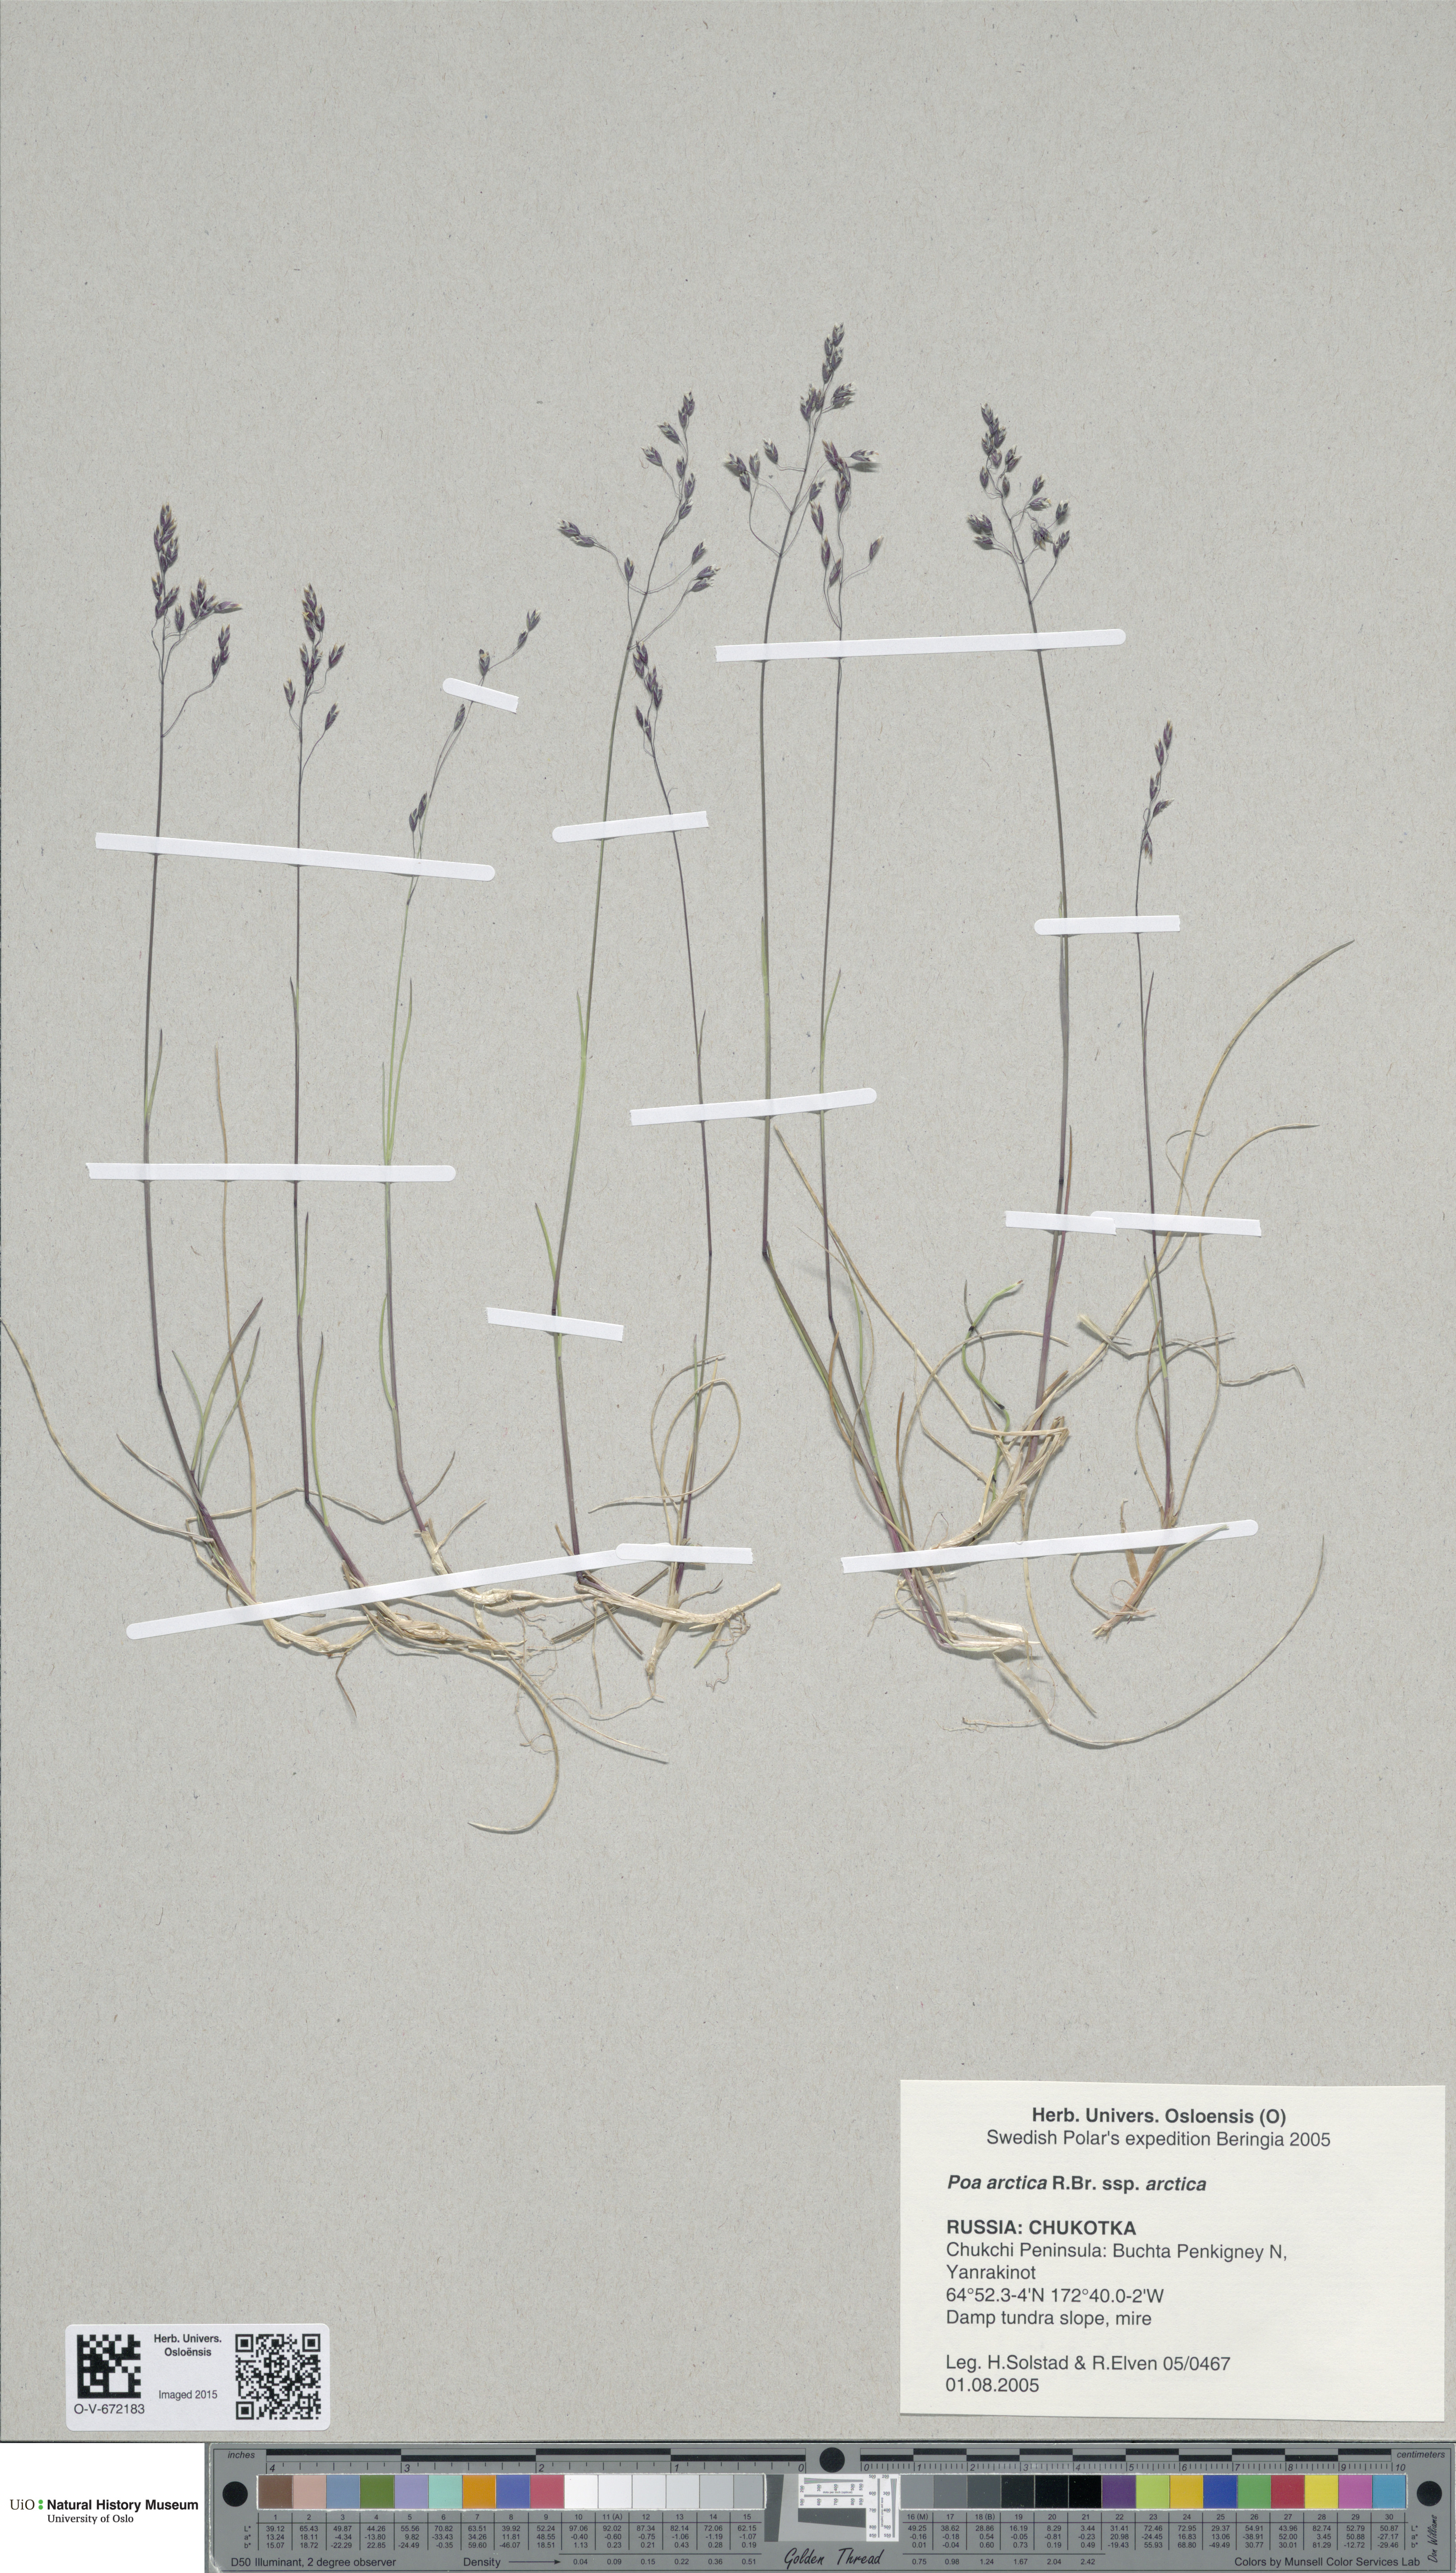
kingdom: Plantae
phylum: Tracheophyta
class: Liliopsida
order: Poales
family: Poaceae
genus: Poa
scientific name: Poa arctica
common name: Arctic bluegrass
